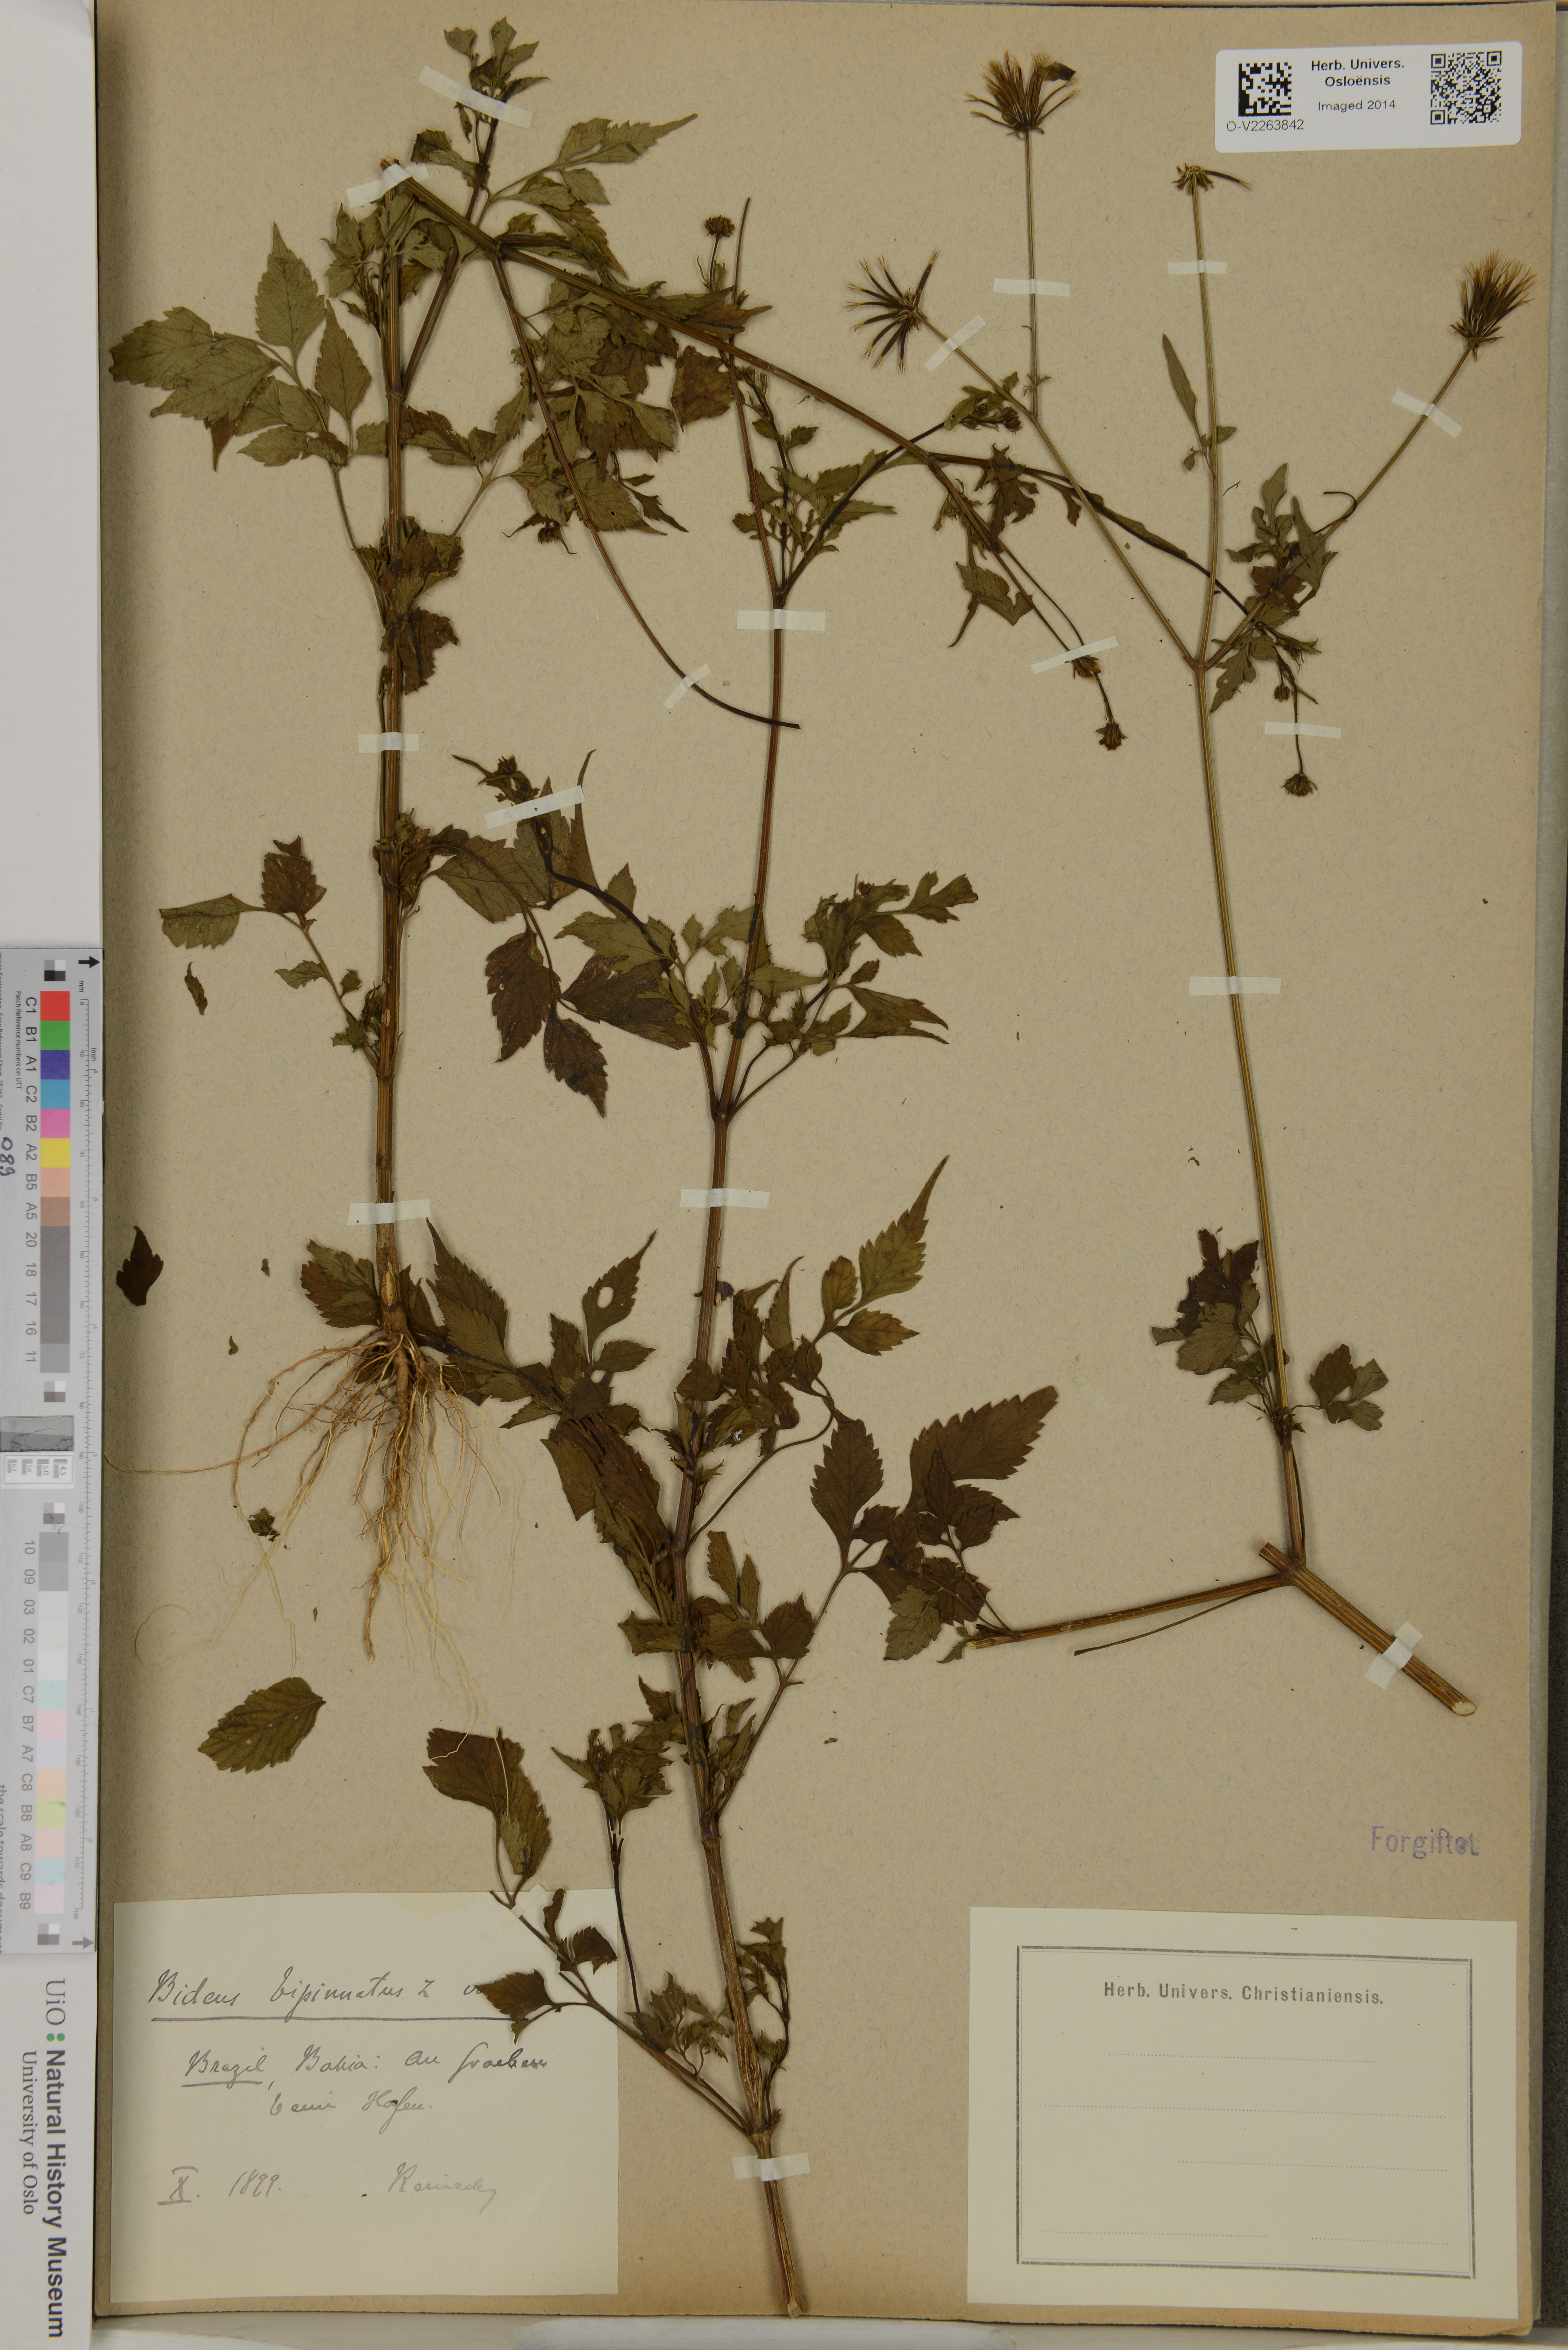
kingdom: Plantae
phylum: Tracheophyta
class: Magnoliopsida
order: Asterales
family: Asteraceae
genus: Bidens
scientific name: Bidens bipinnata
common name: Spanish-needles
